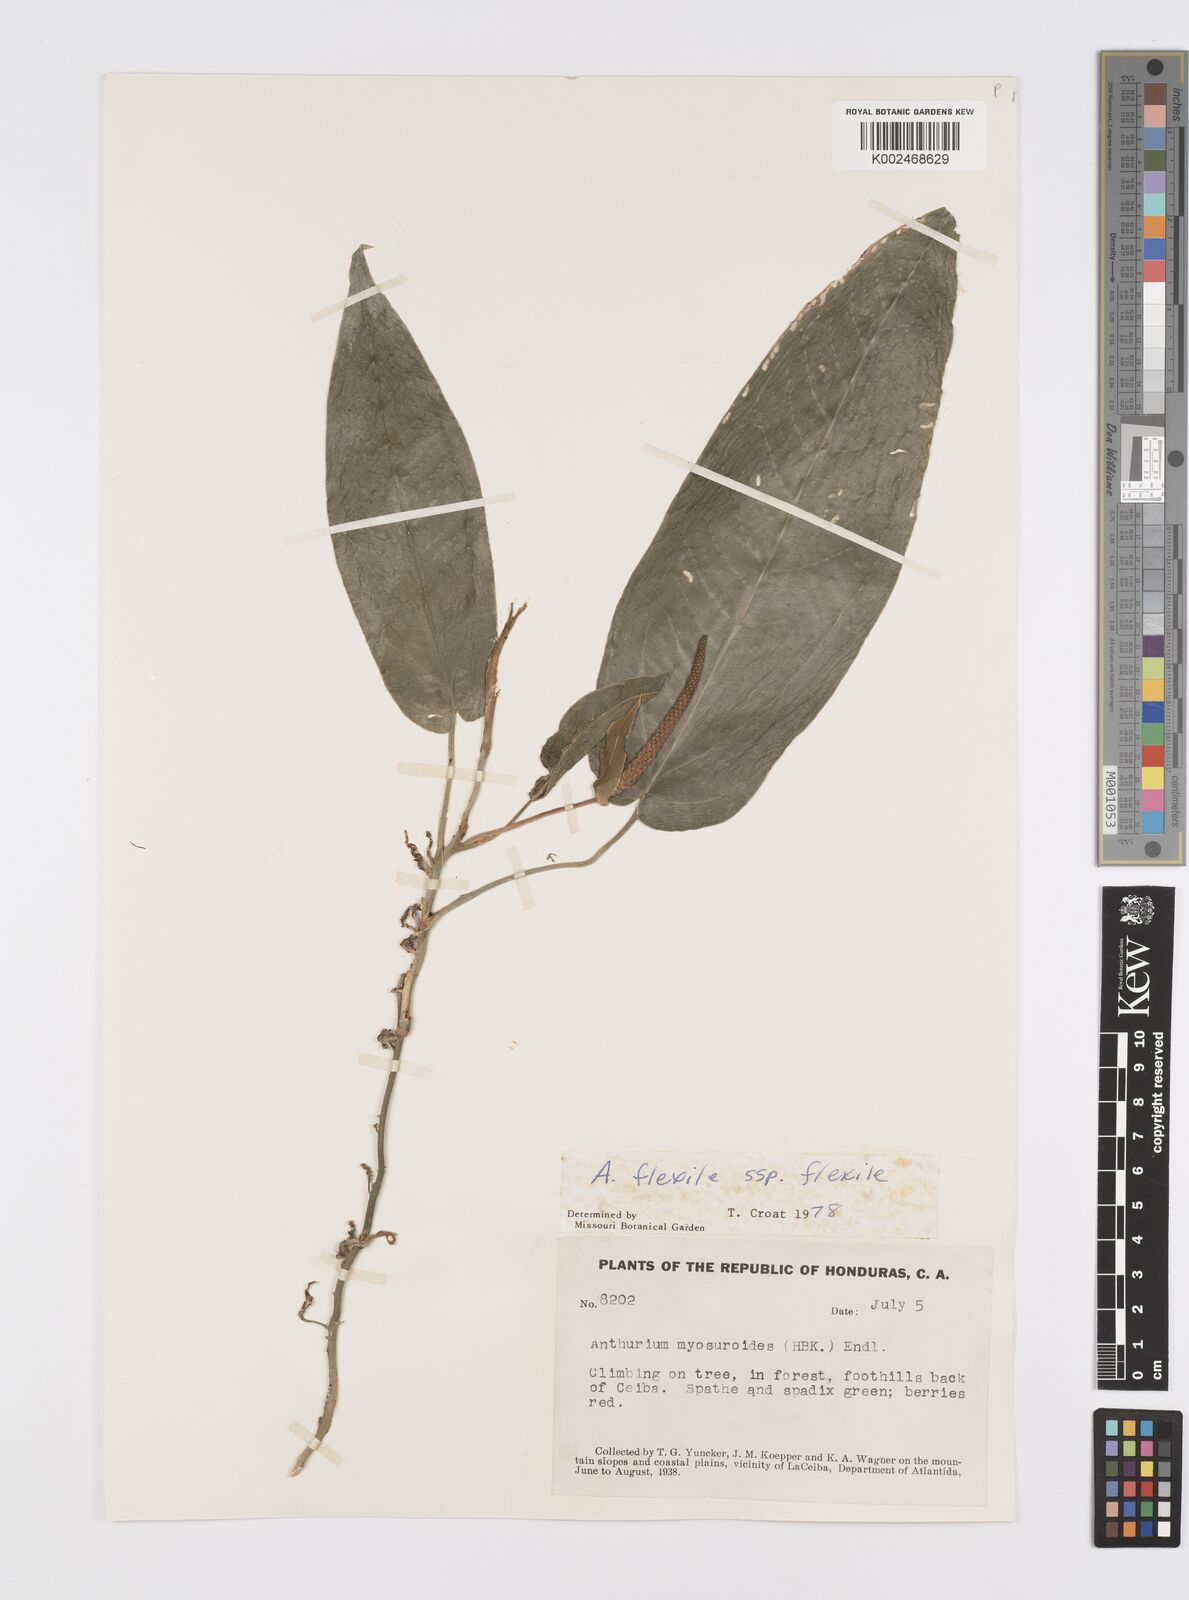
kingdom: Plantae
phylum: Tracheophyta
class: Liliopsida
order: Alismatales
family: Araceae
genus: Anthurium
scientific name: Anthurium flexile
